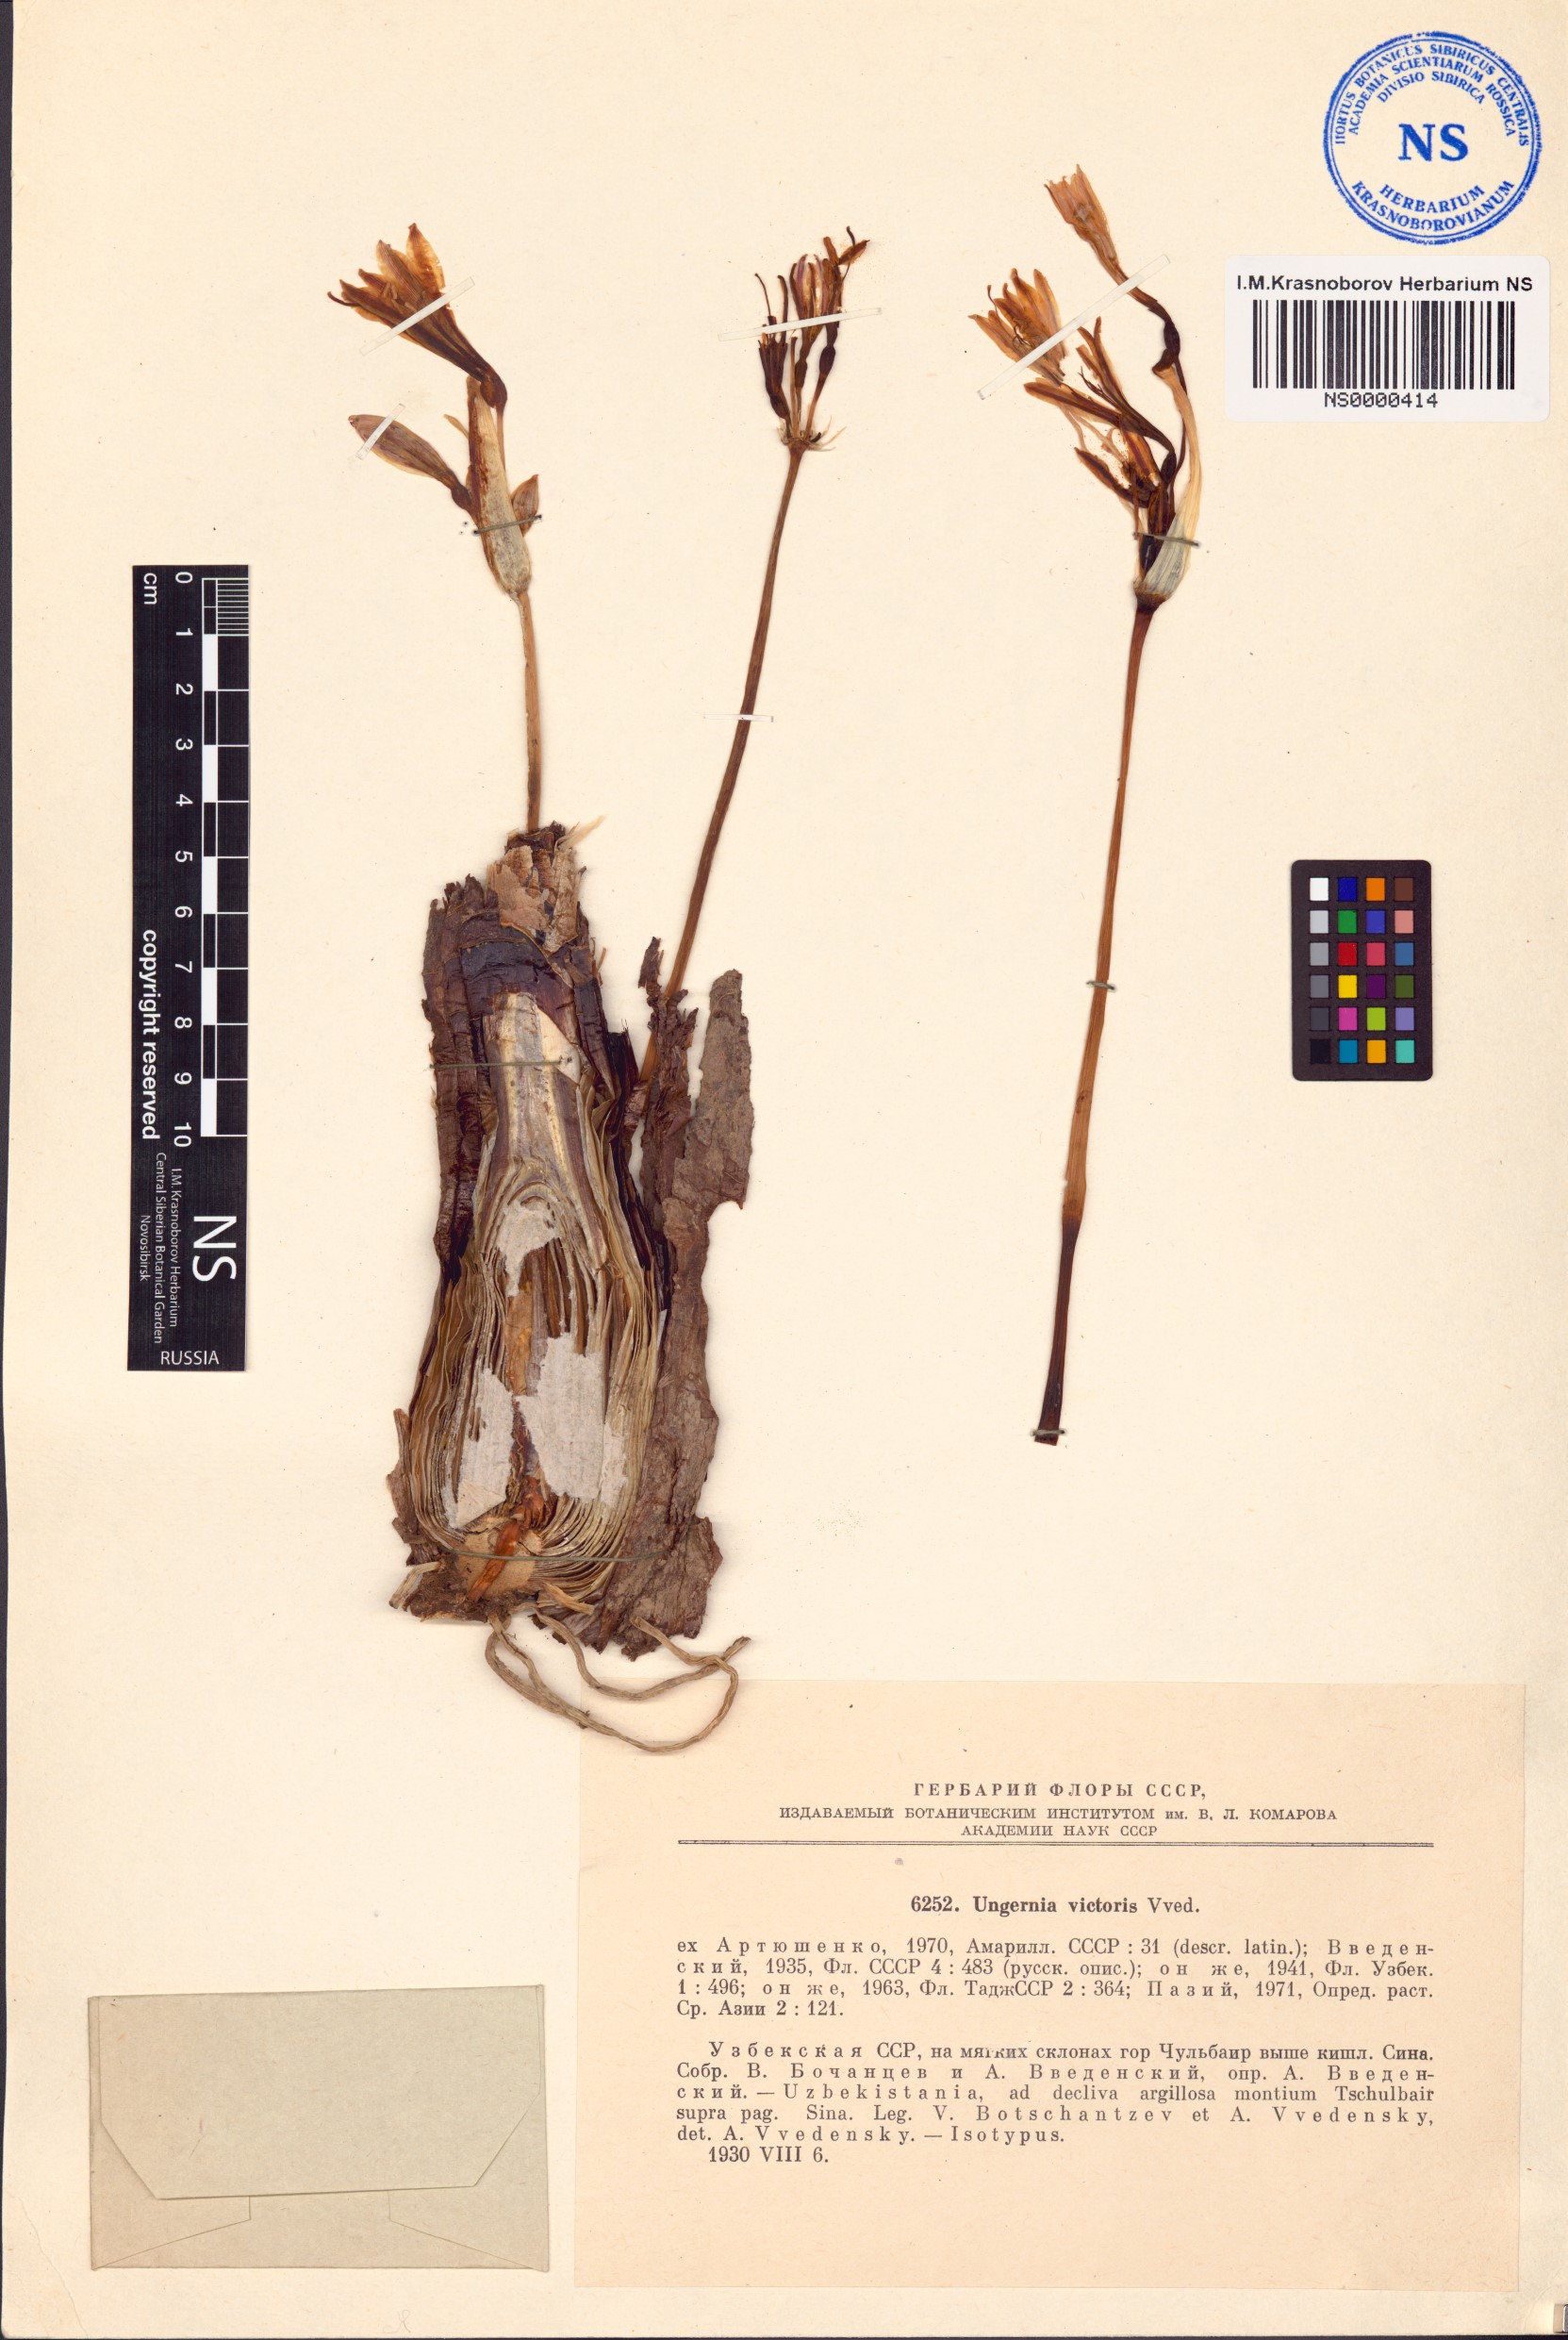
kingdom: Plantae
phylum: Tracheophyta
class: Liliopsida
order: Asparagales
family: Amaryllidaceae
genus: Ungernia
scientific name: Ungernia victoris
